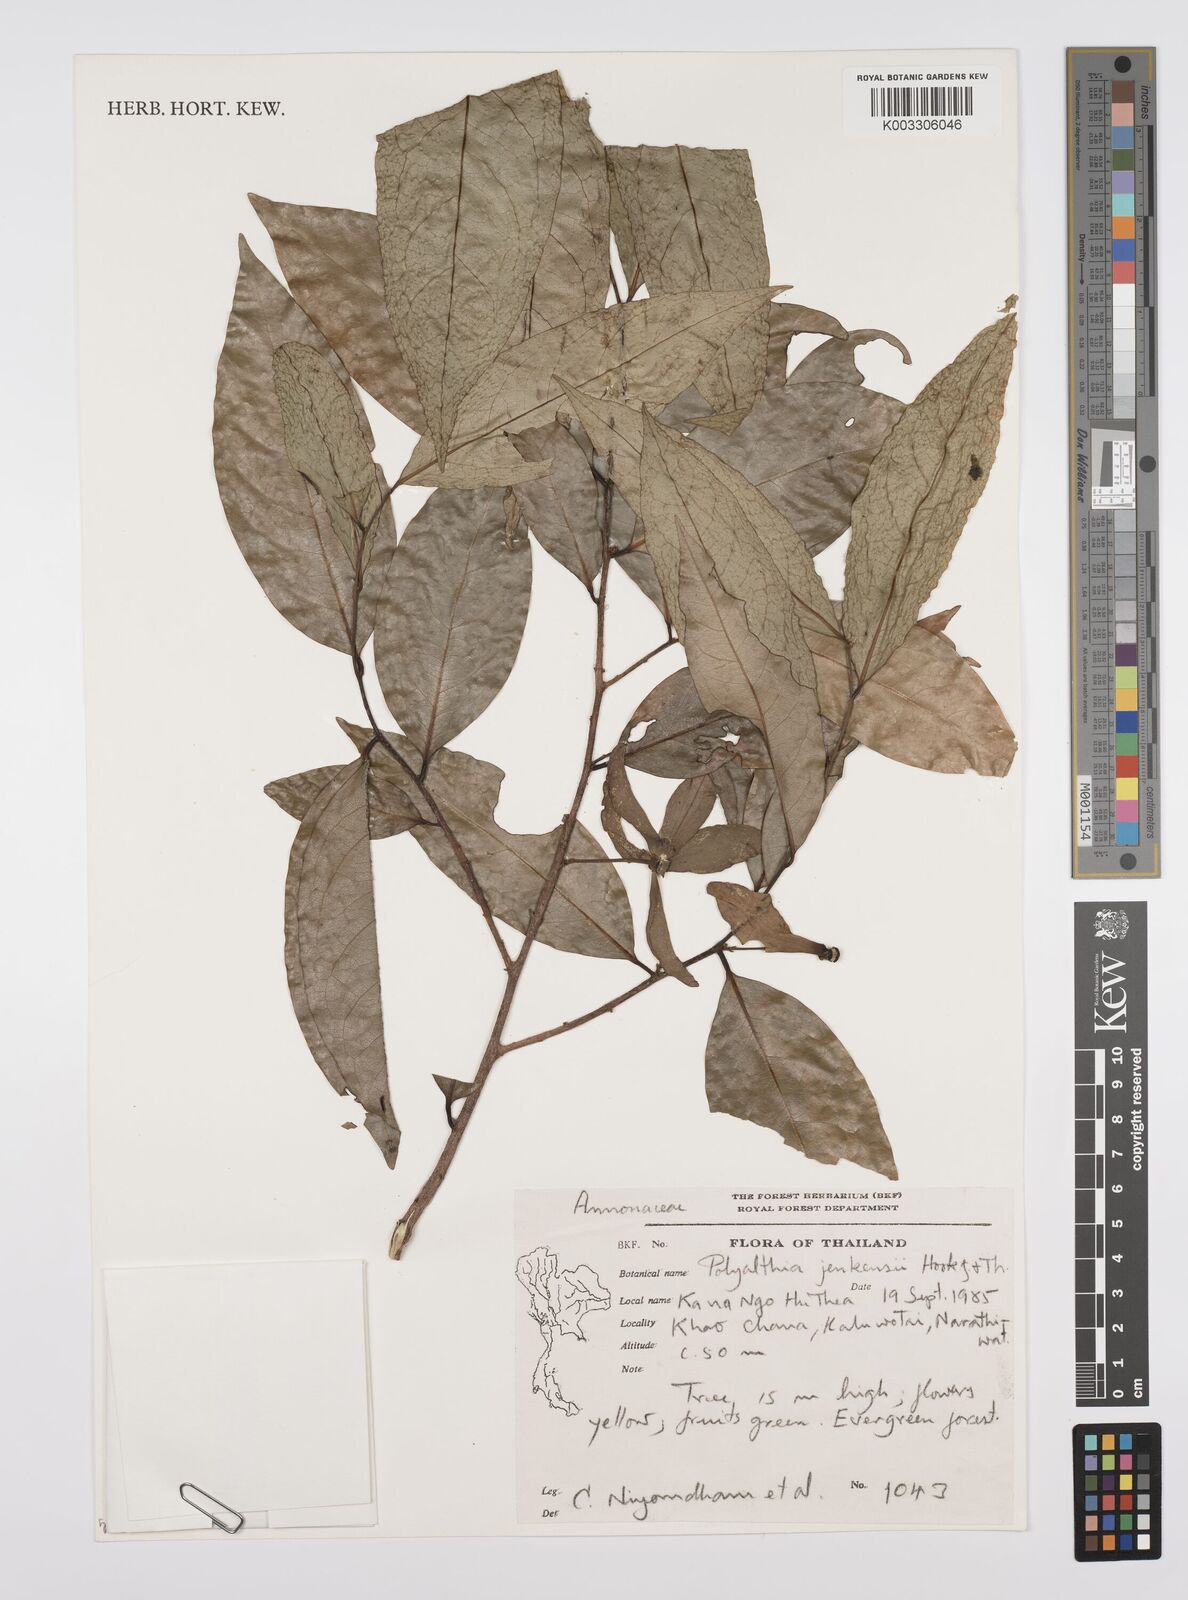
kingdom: Plantae
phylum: Tracheophyta
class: Magnoliopsida
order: Magnoliales
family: Annonaceae
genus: Hubera
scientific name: Hubera jenkinsii
